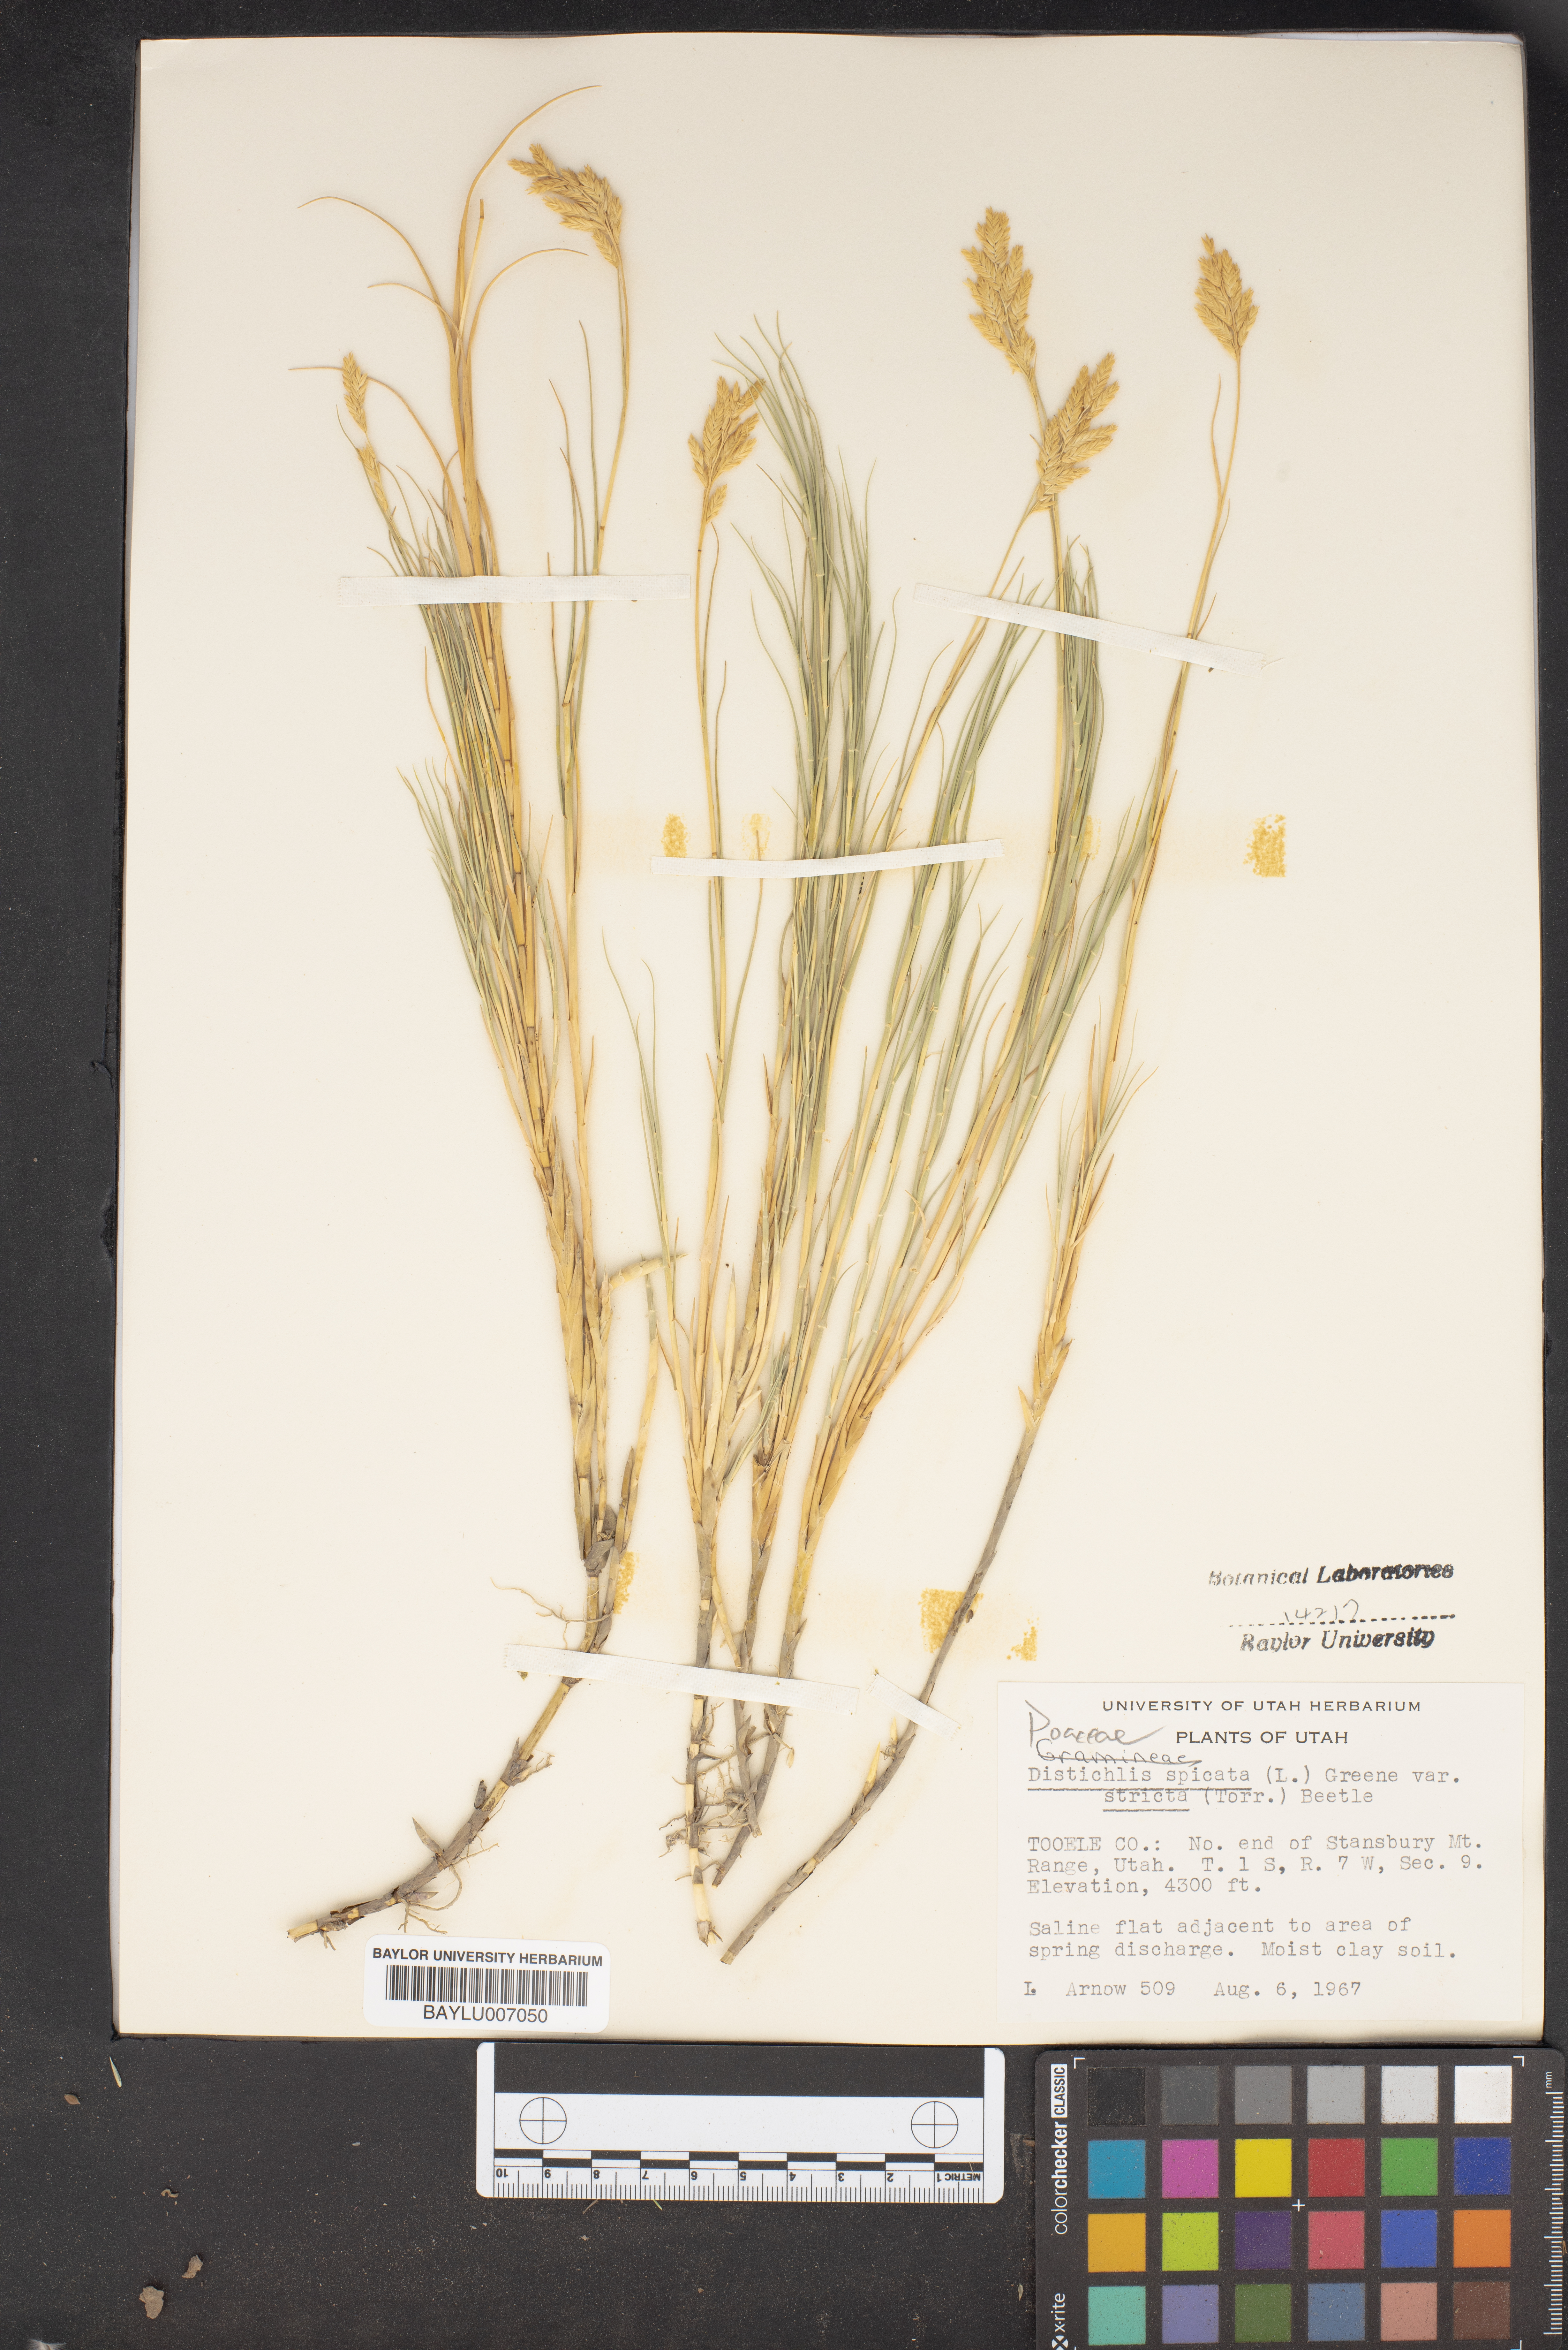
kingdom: Plantae
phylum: Tracheophyta
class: Liliopsida
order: Poales
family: Poaceae
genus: Distichlis
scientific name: Distichlis spicata
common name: Saltgrass
